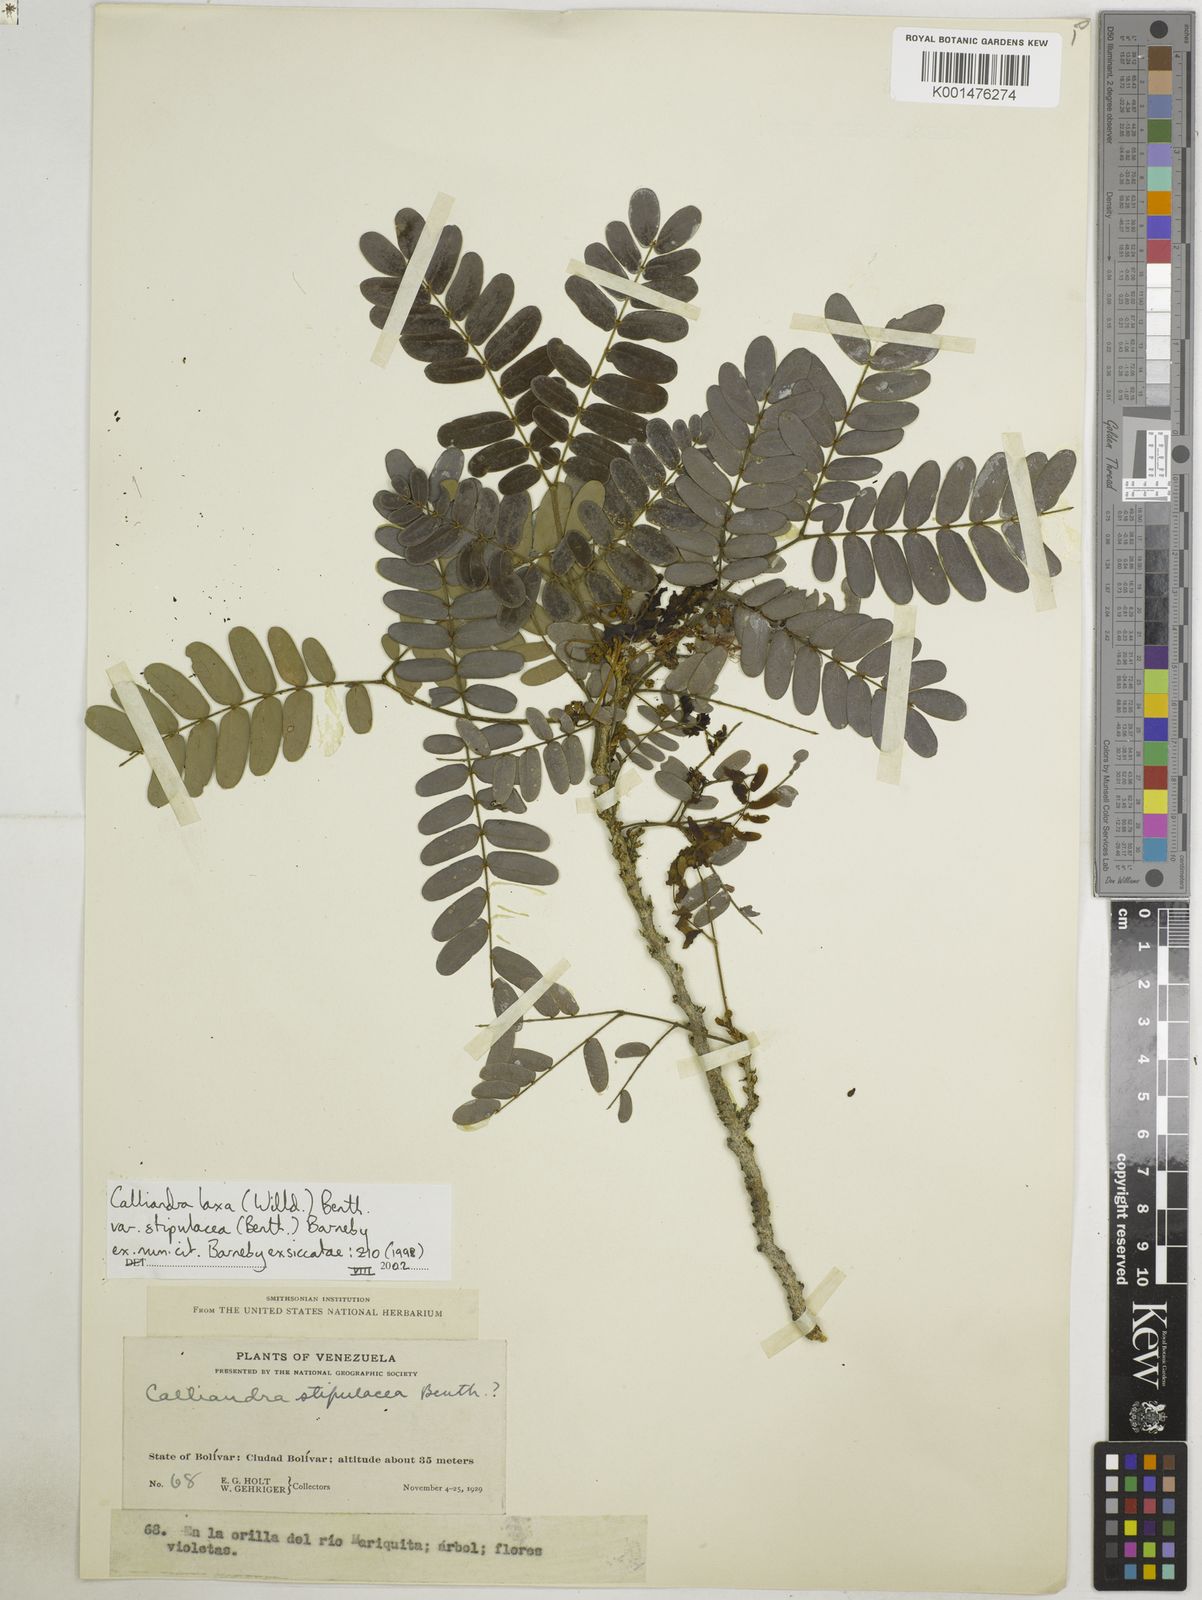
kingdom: Plantae
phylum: Tracheophyta
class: Magnoliopsida
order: Fabales
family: Fabaceae
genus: Calliandra
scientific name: Calliandra laxa
